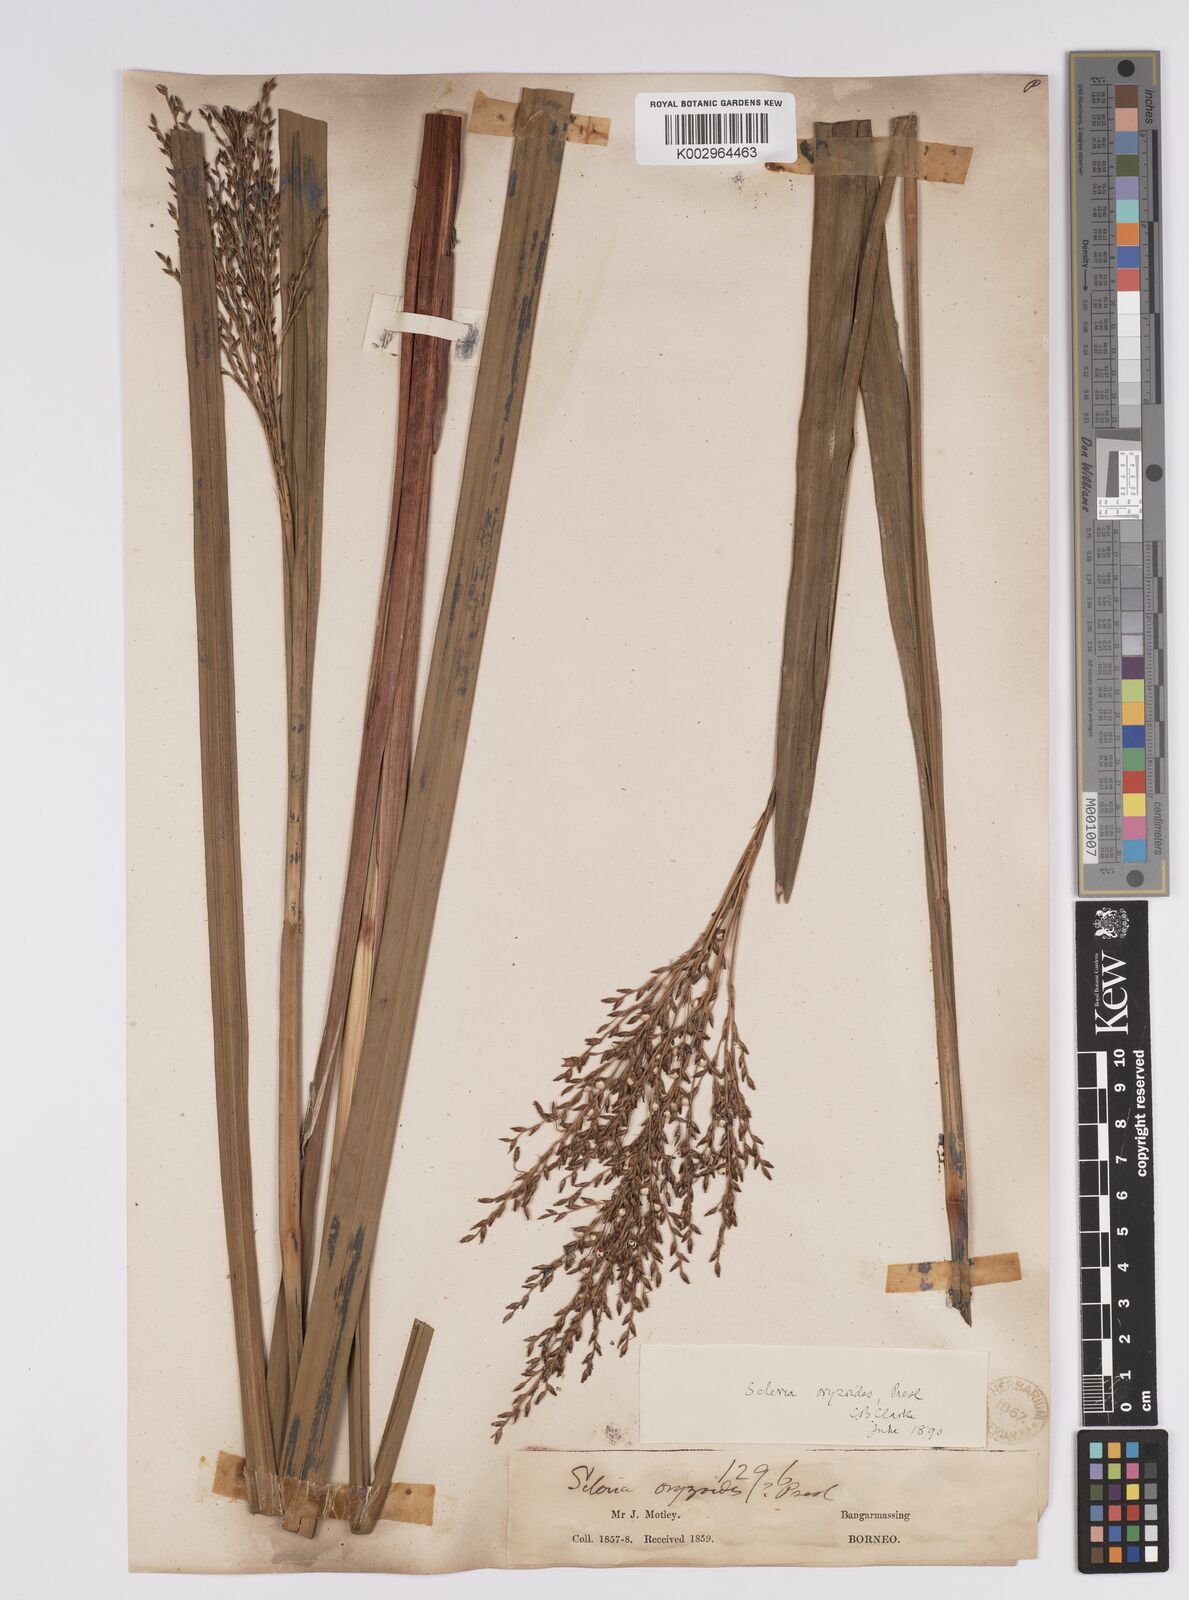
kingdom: Plantae
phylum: Tracheophyta
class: Liliopsida
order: Poales
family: Cyperaceae
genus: Scleria
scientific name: Scleria poiformis
